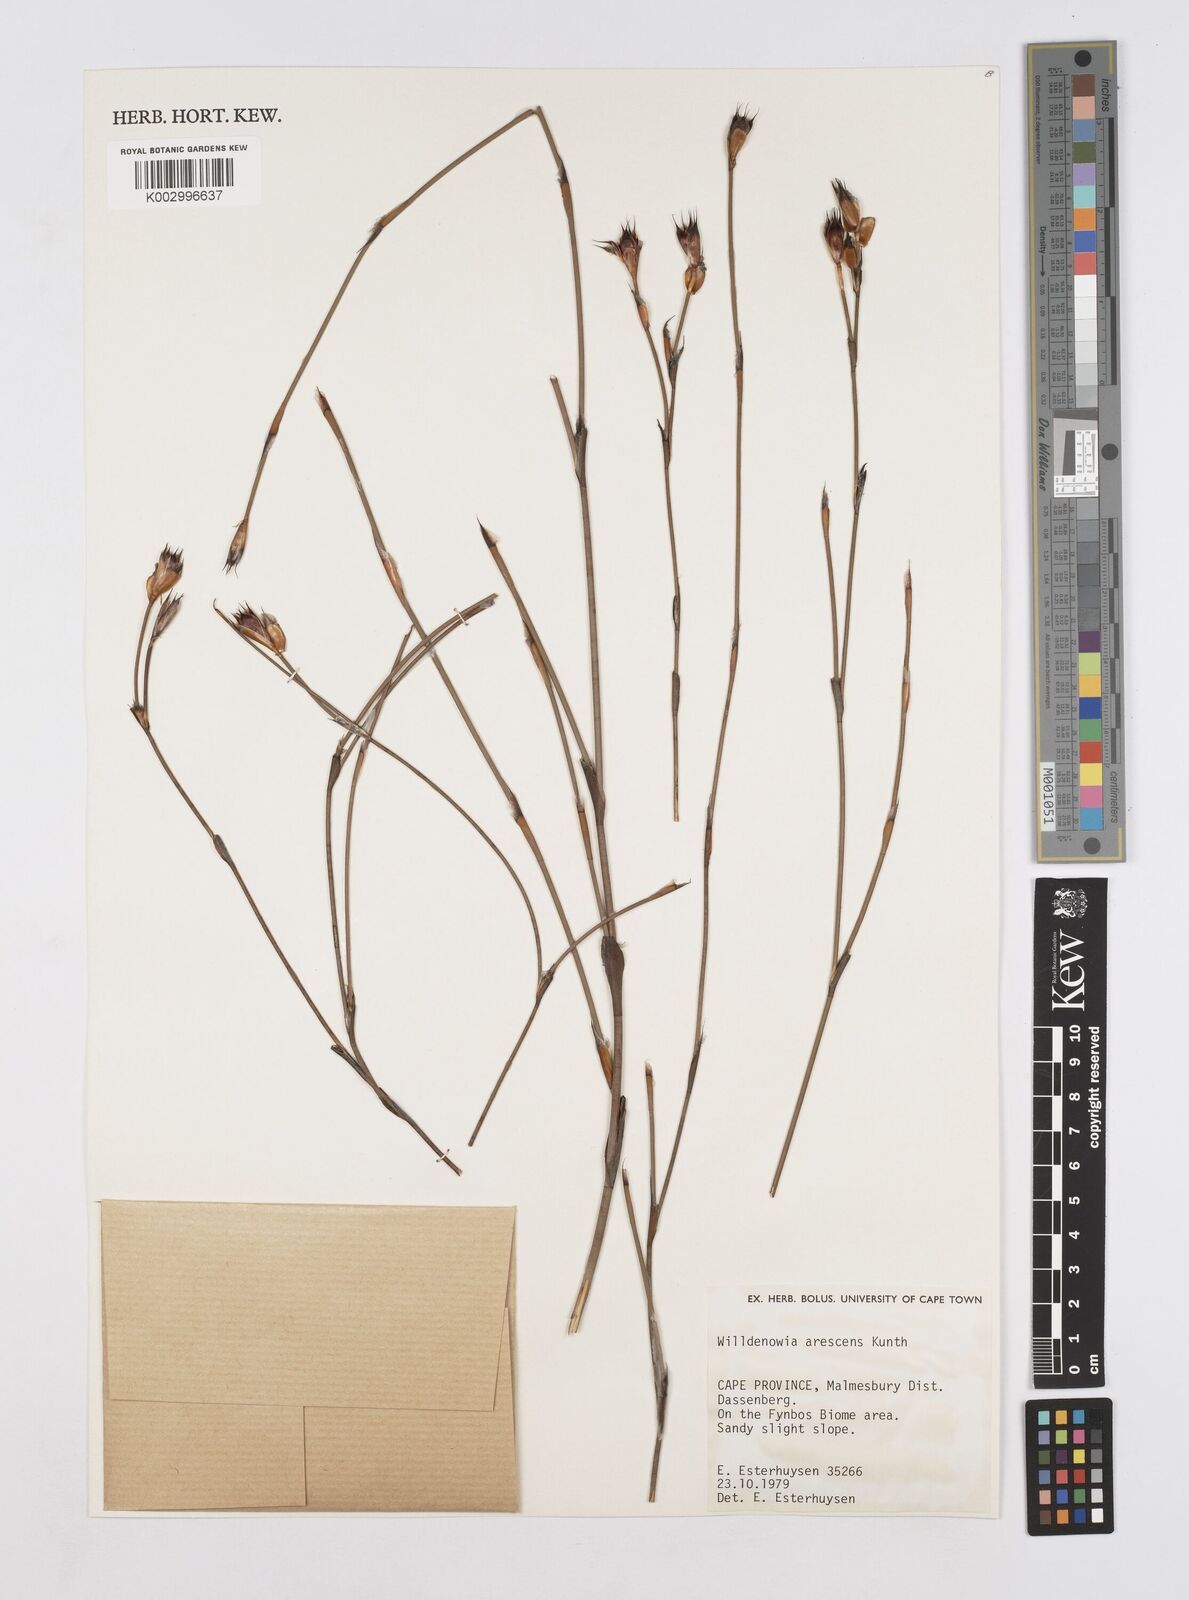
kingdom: Plantae
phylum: Tracheophyta
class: Liliopsida
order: Poales
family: Restionaceae
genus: Willdenowia
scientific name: Willdenowia arescens
